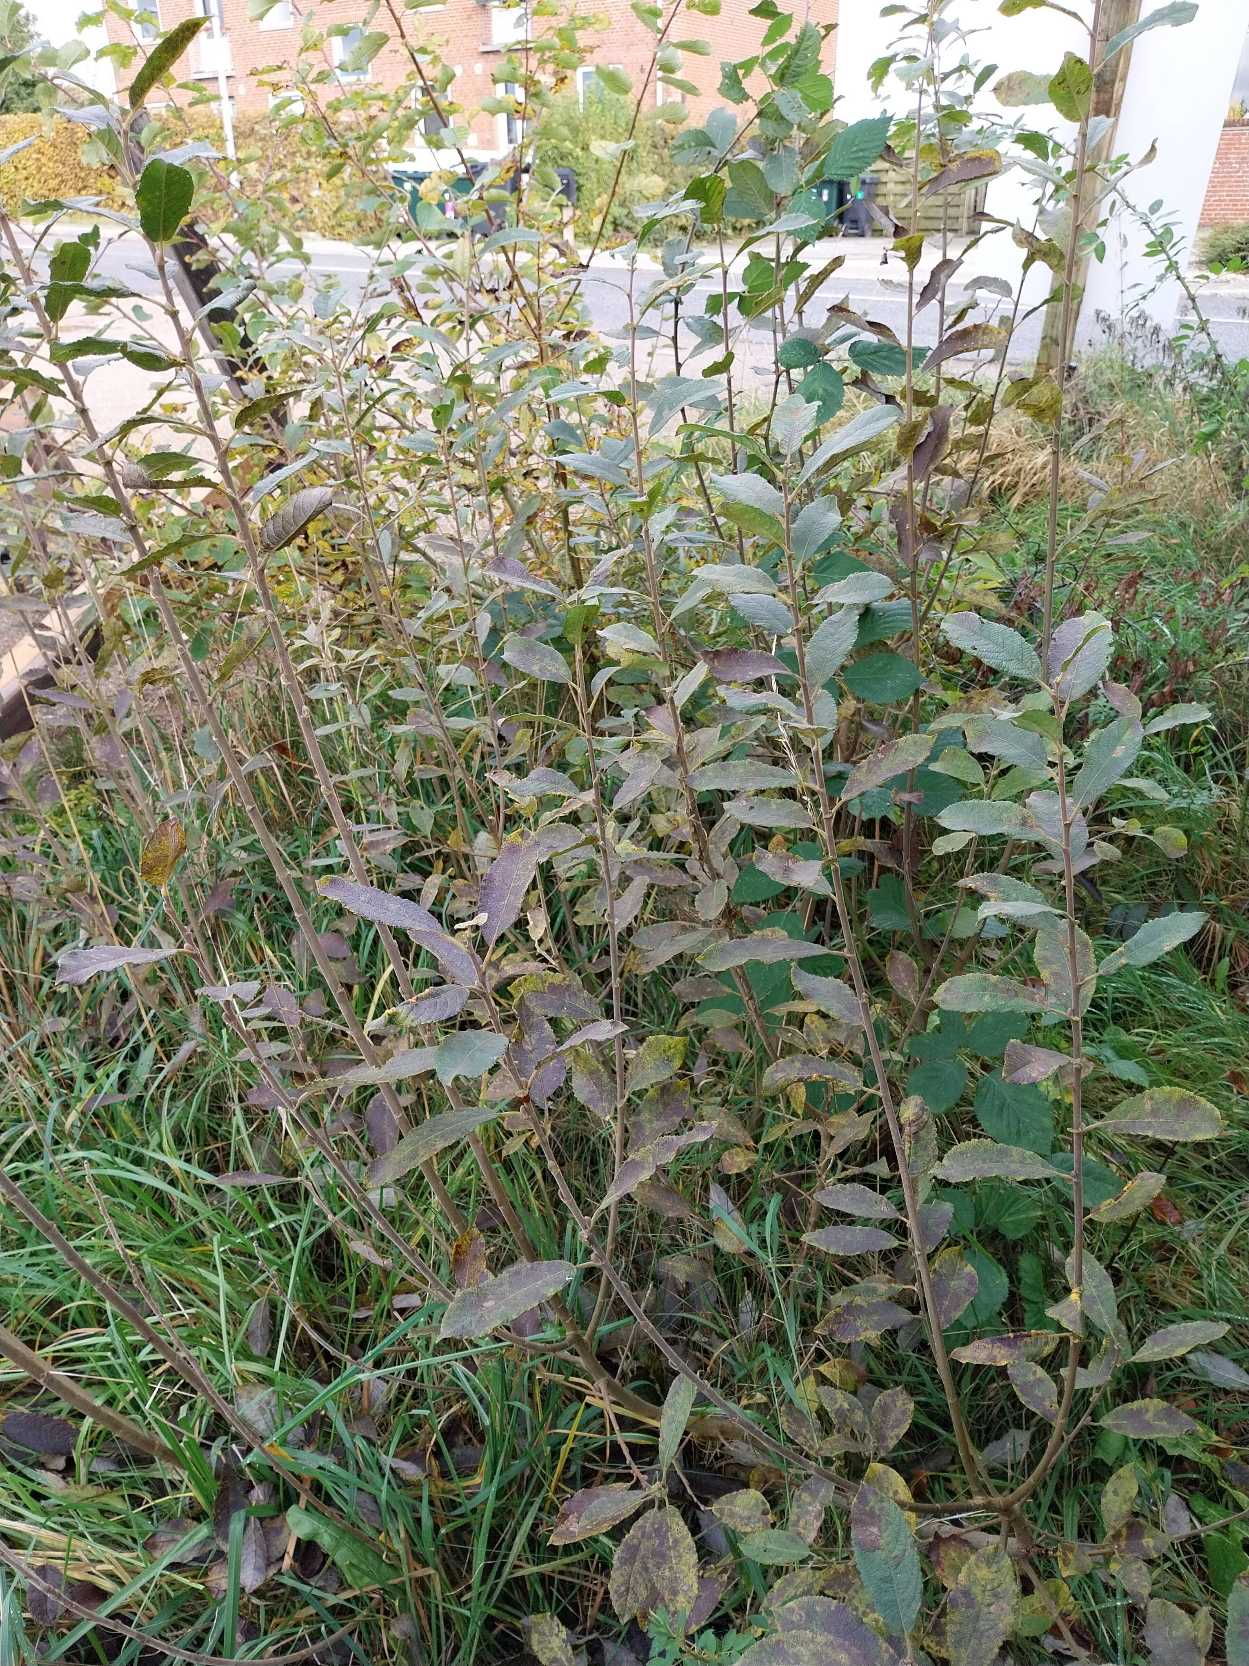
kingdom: Plantae
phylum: Tracheophyta
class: Magnoliopsida
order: Malpighiales
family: Salicaceae
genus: Salix
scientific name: Salix cinerea
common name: Grå-pil
